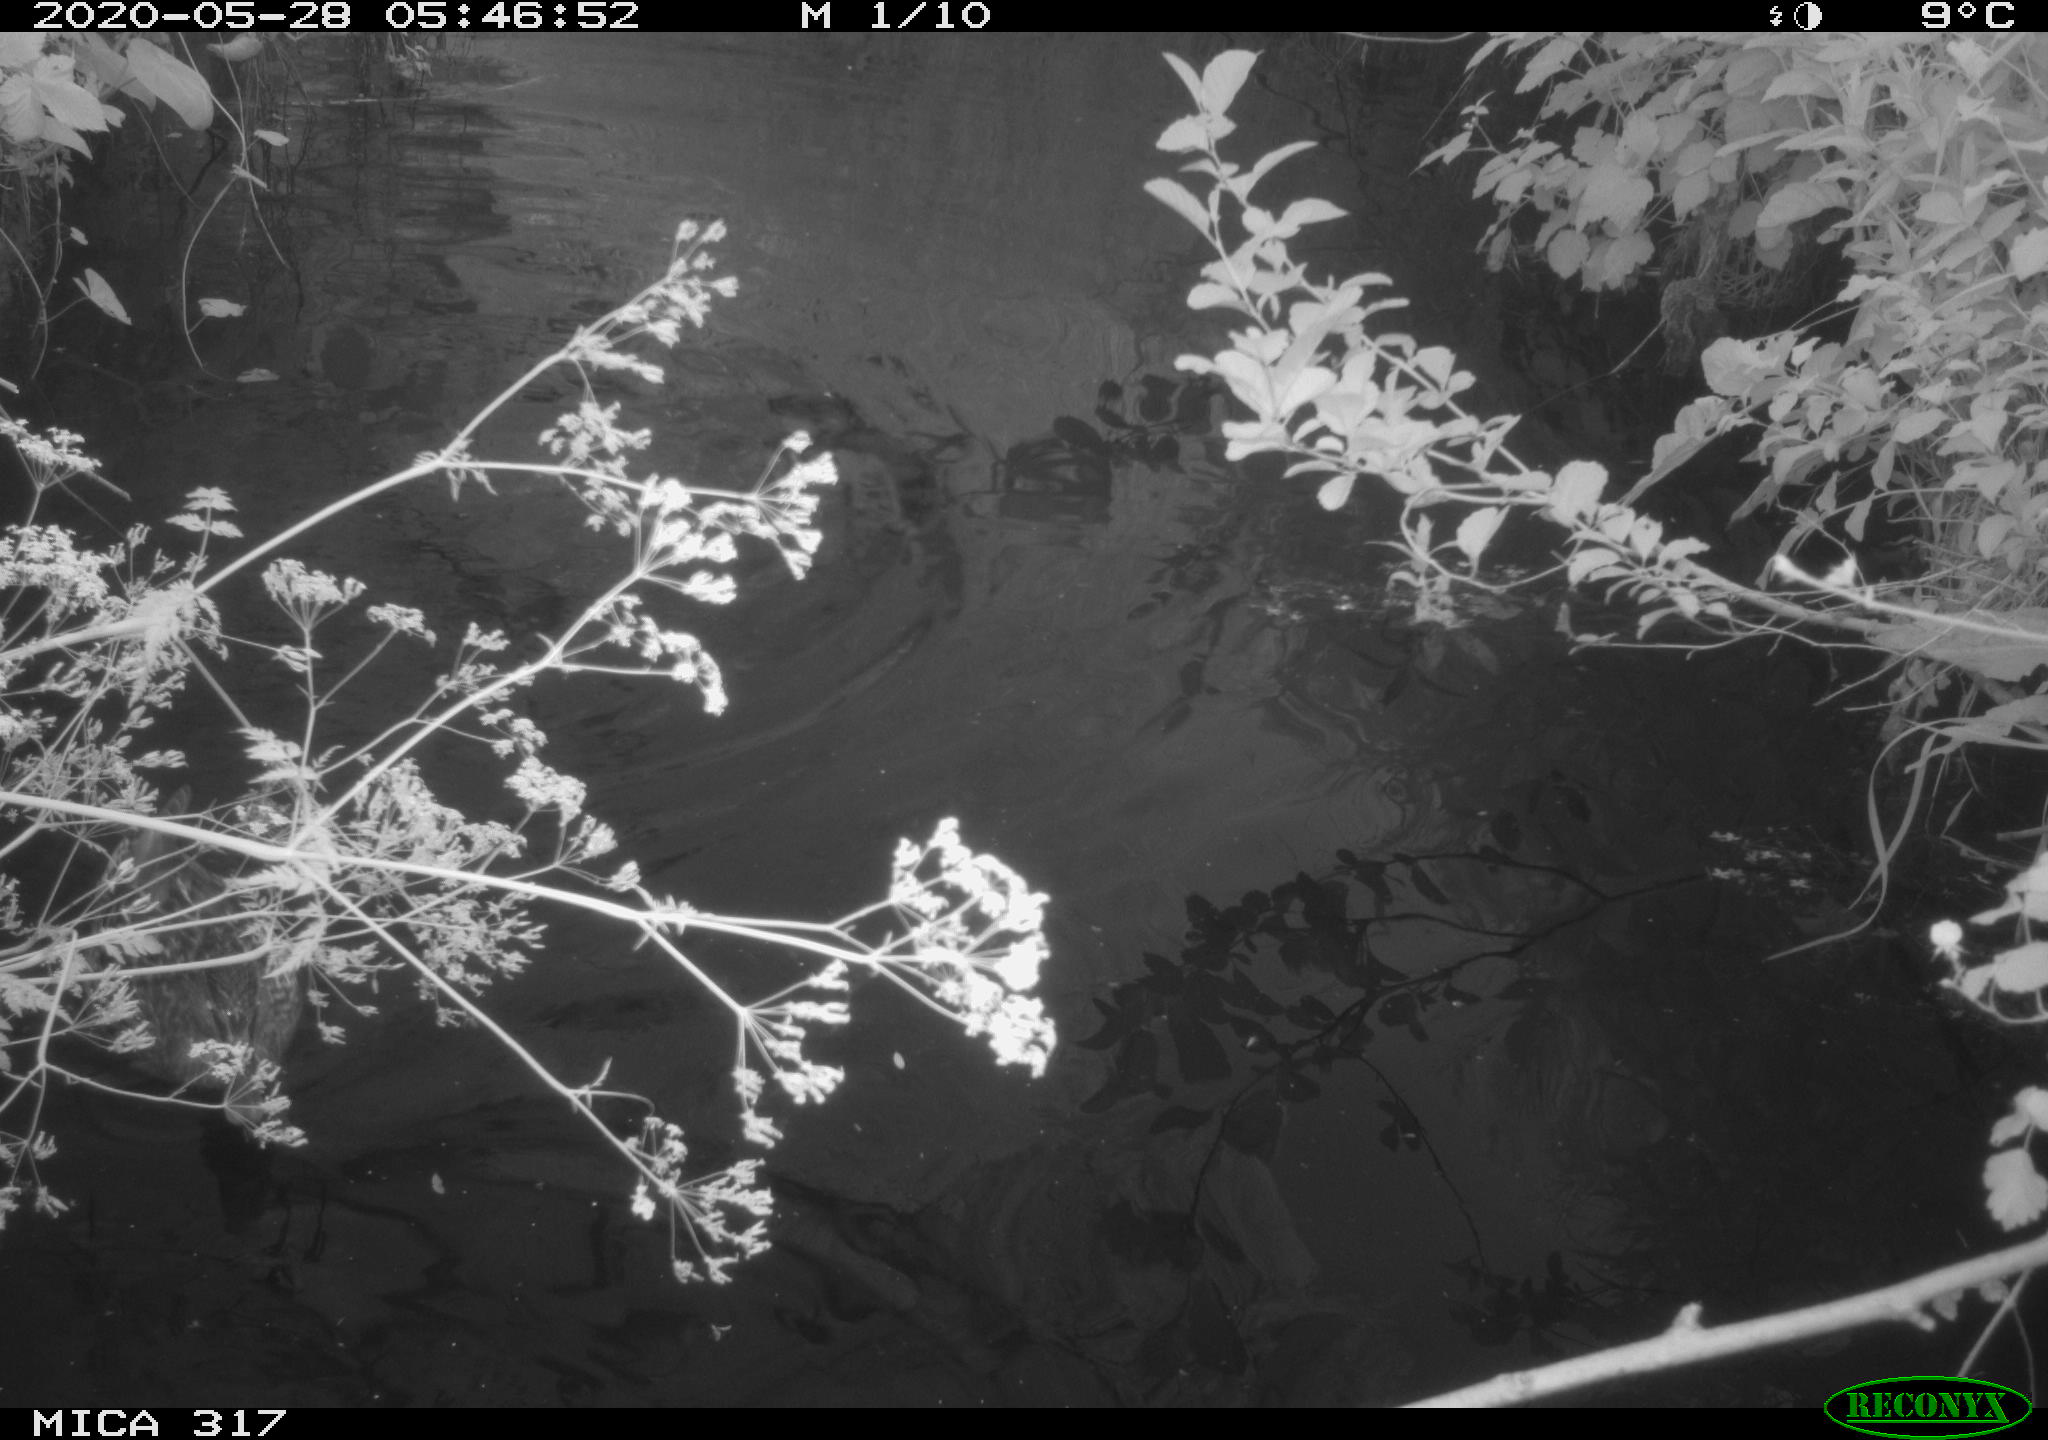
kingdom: Animalia
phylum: Chordata
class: Aves
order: Anseriformes
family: Anatidae
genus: Anas
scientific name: Anas platyrhynchos
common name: Mallard
